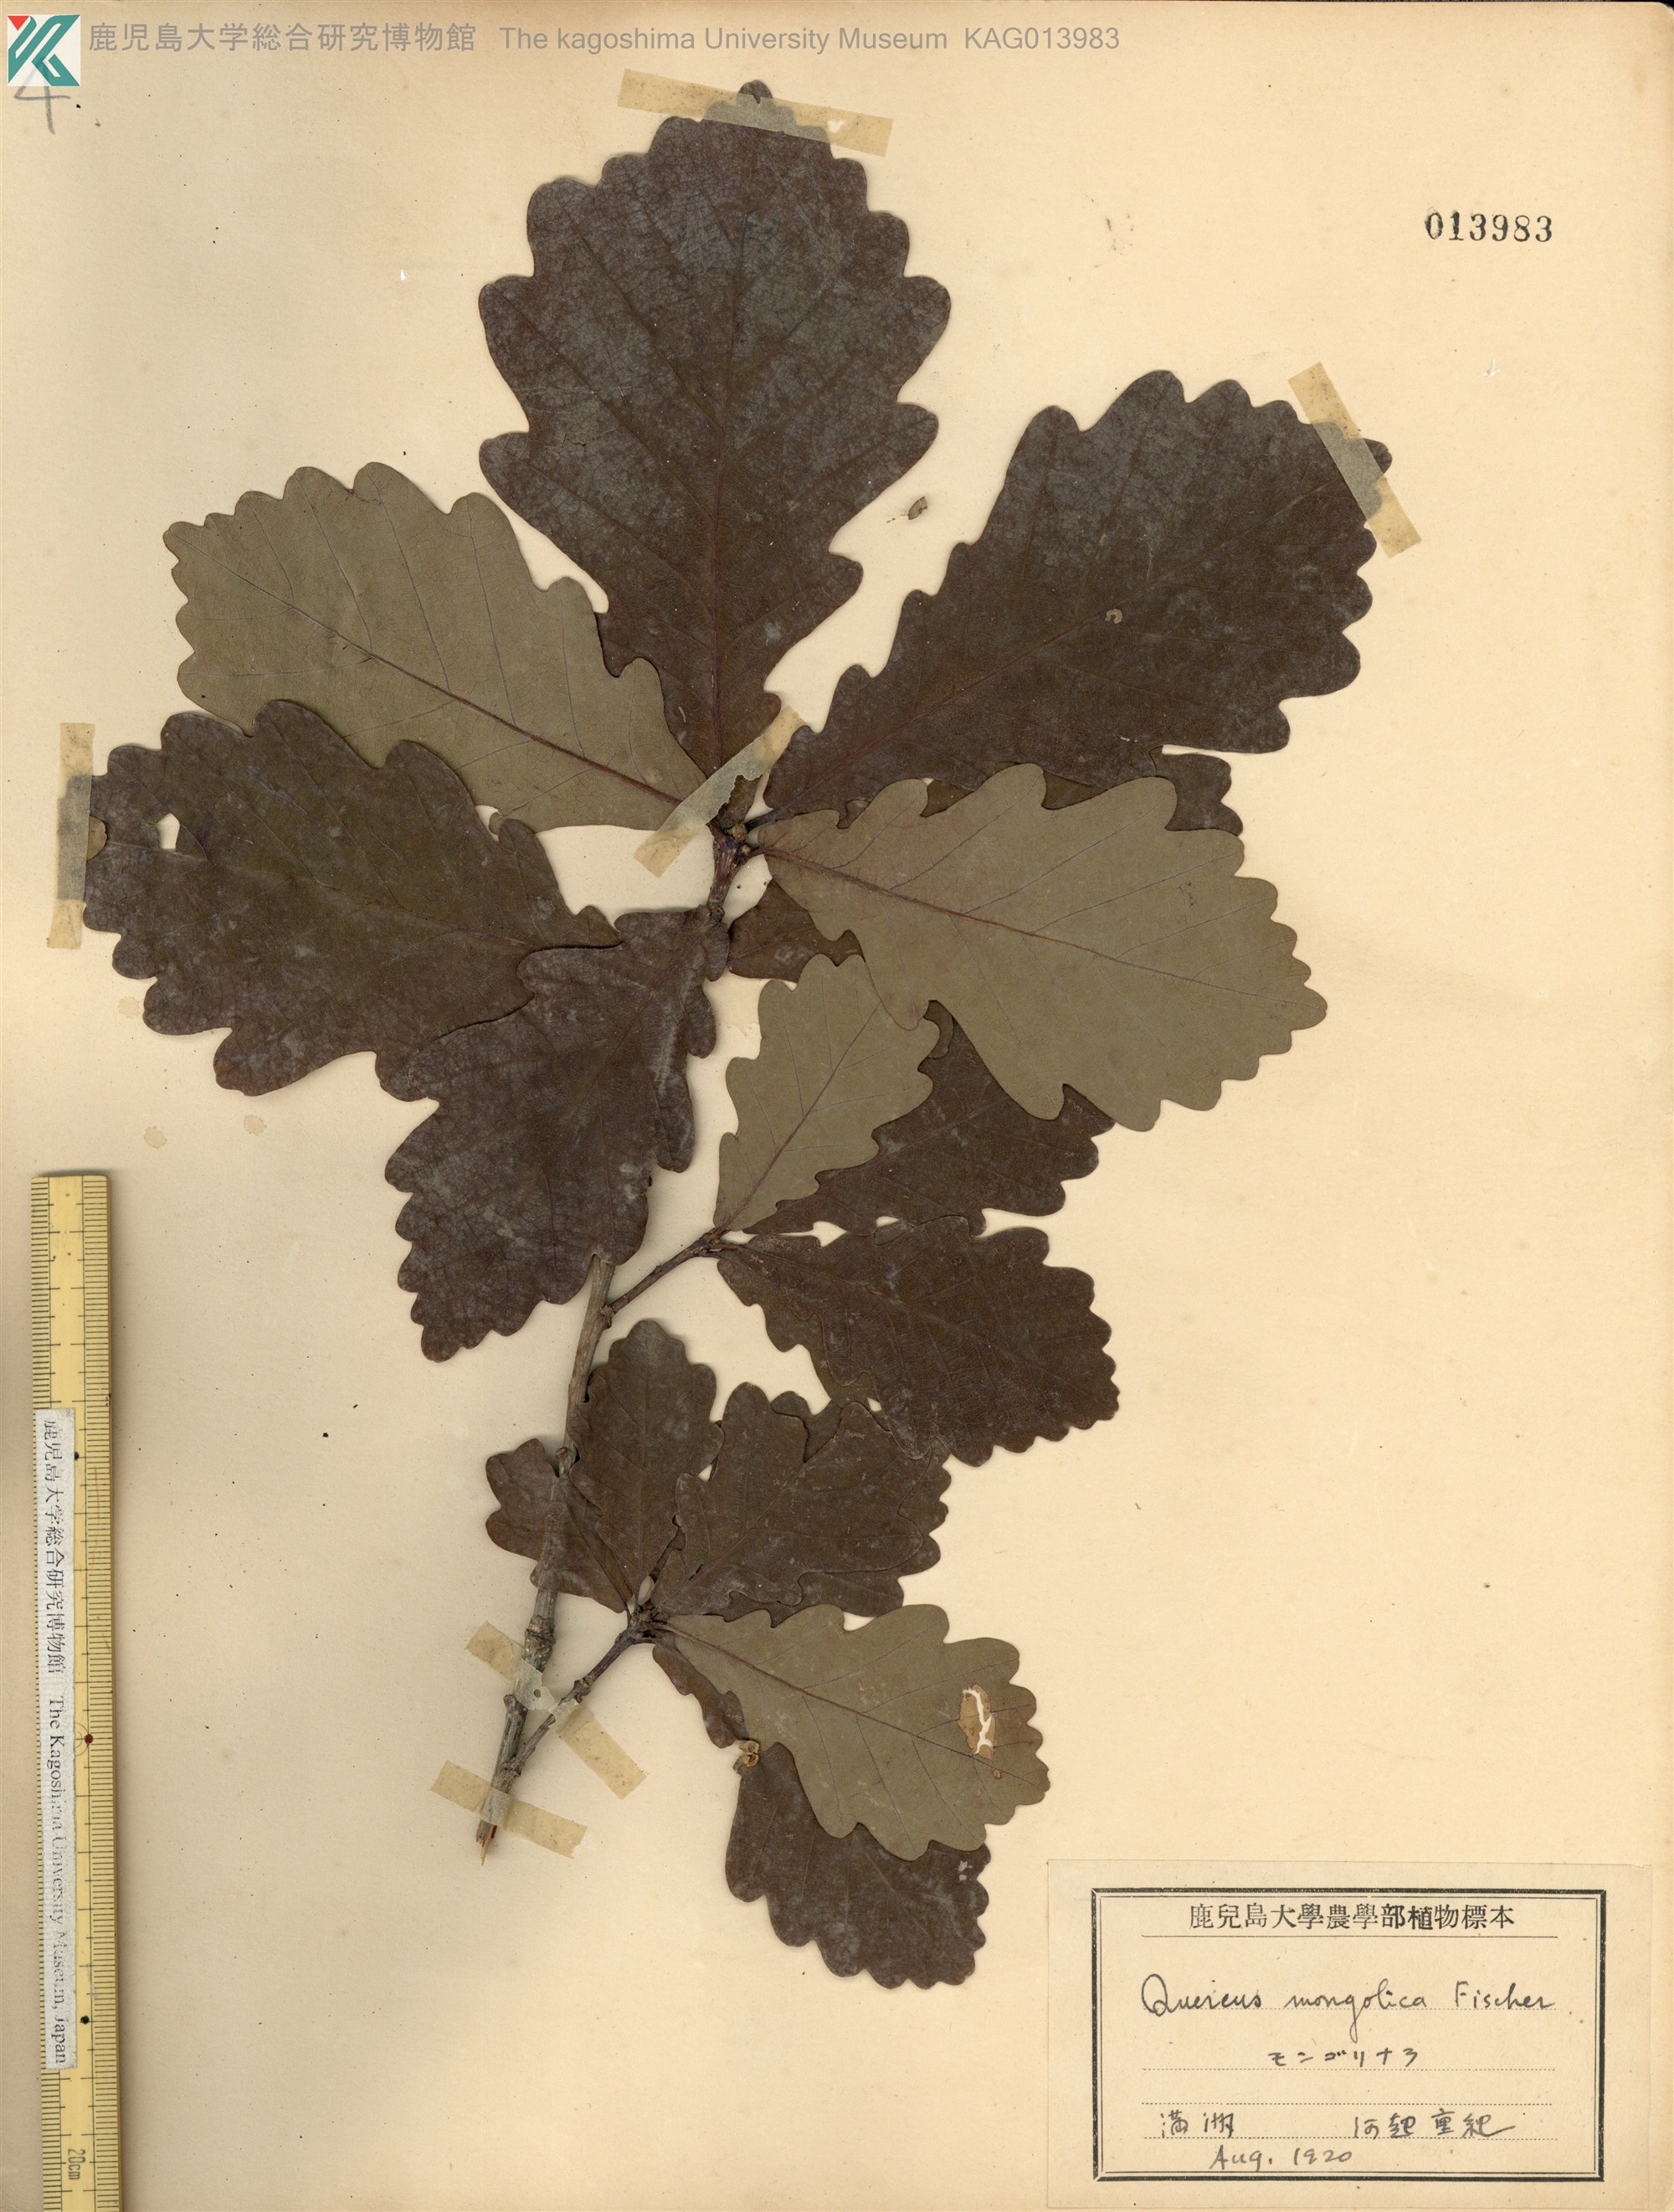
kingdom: Plantae
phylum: Tracheophyta
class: Magnoliopsida
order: Fagales
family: Fagaceae
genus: Quercus
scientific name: Quercus mongolica
